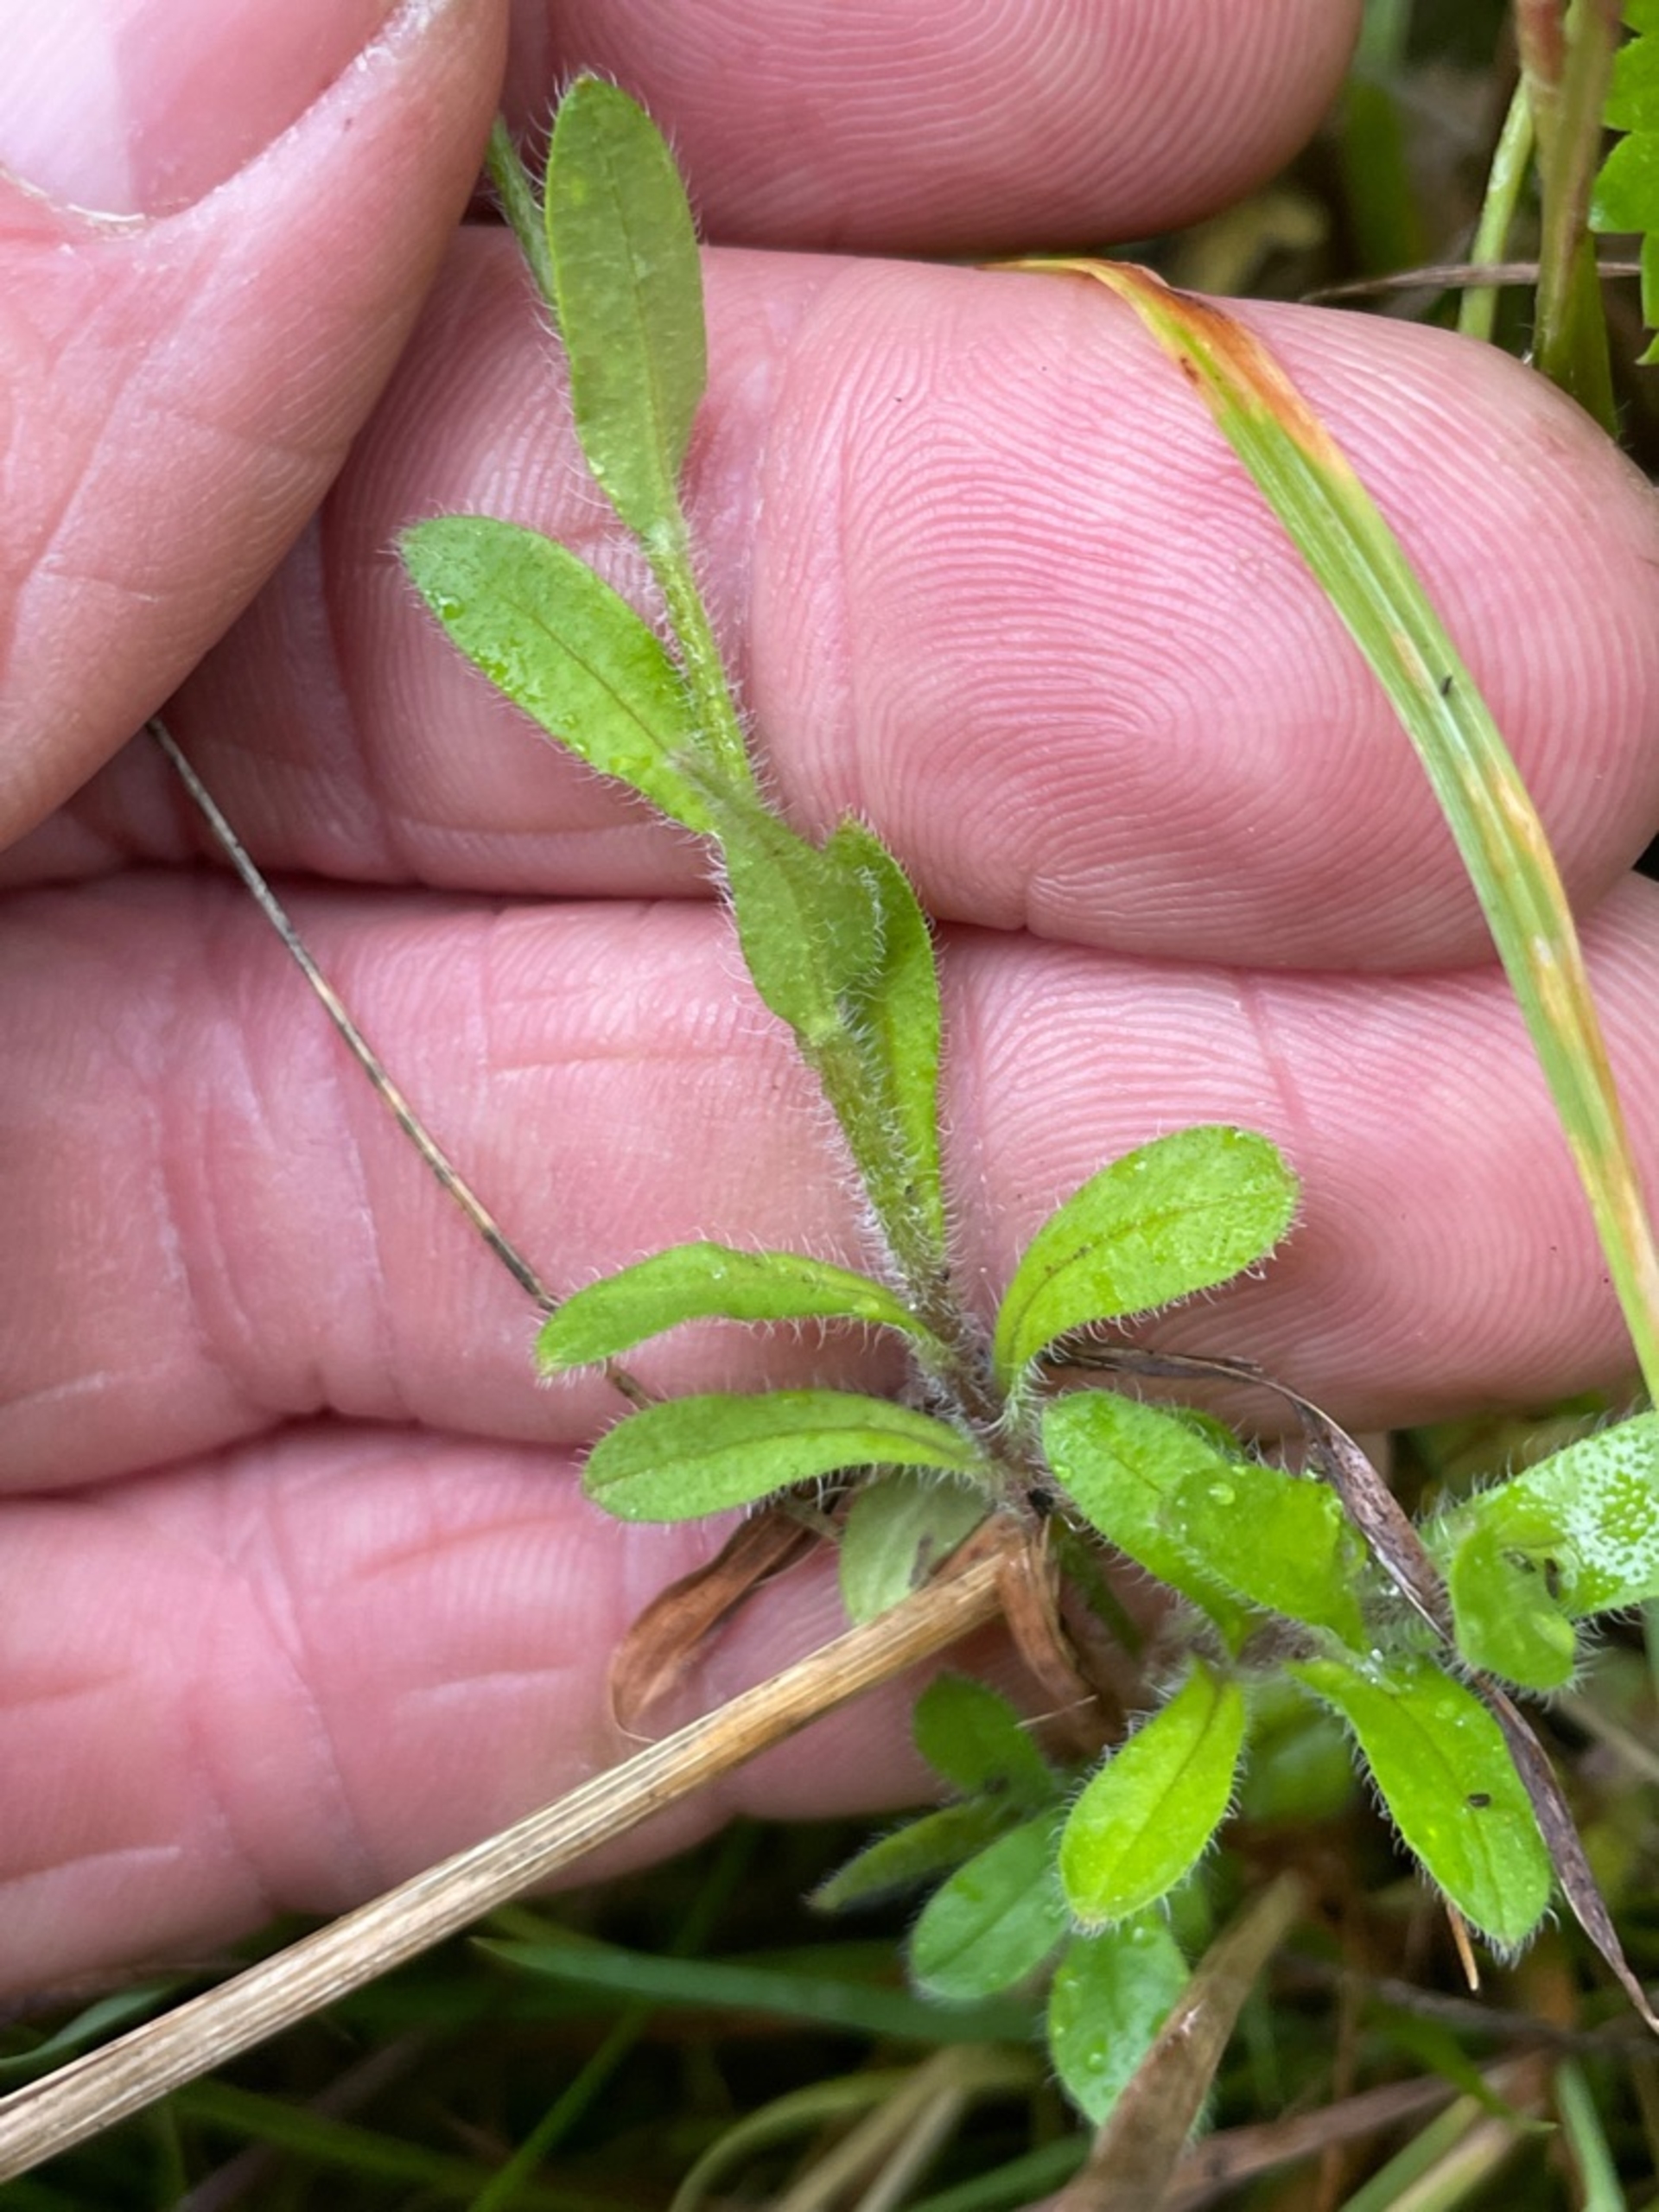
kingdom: Plantae
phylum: Tracheophyta
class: Magnoliopsida
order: Boraginales
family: Boraginaceae
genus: Myosotis
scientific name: Myosotis arvensis
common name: Mark-forglemmigej
